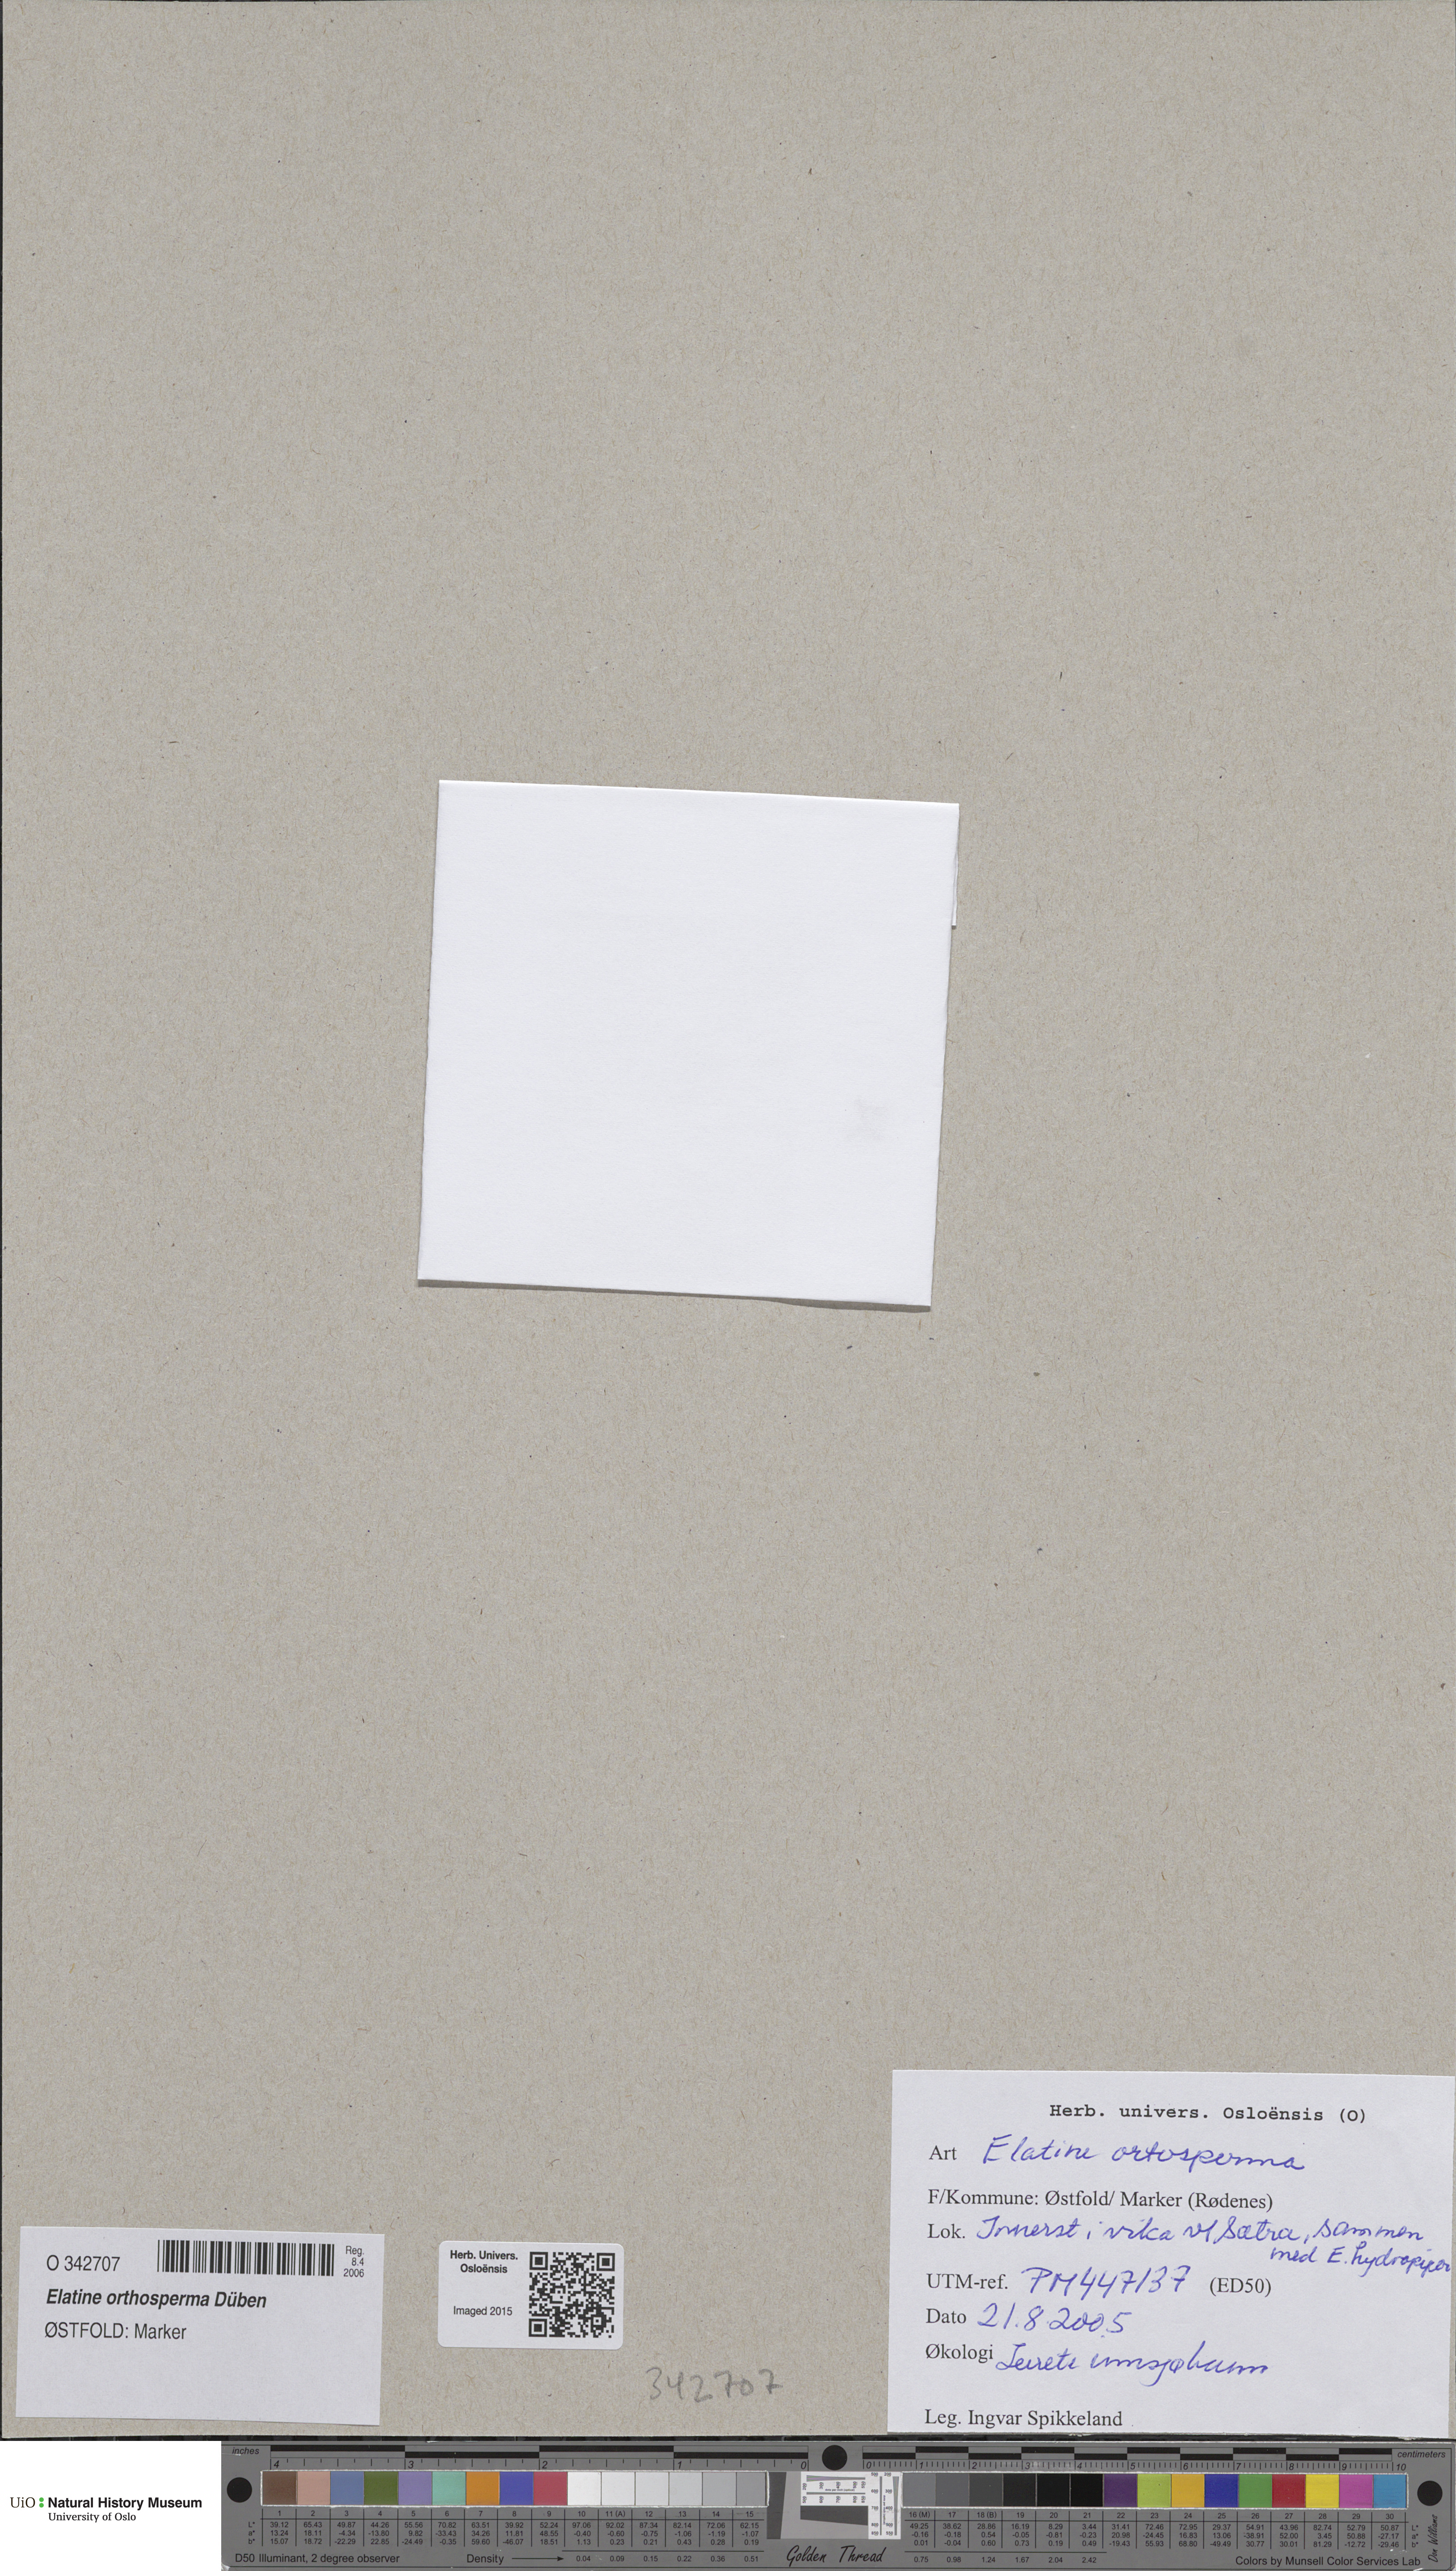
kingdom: Plantae
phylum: Tracheophyta
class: Magnoliopsida
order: Malpighiales
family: Elatinaceae
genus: Elatine
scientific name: Elatine orthosperma
